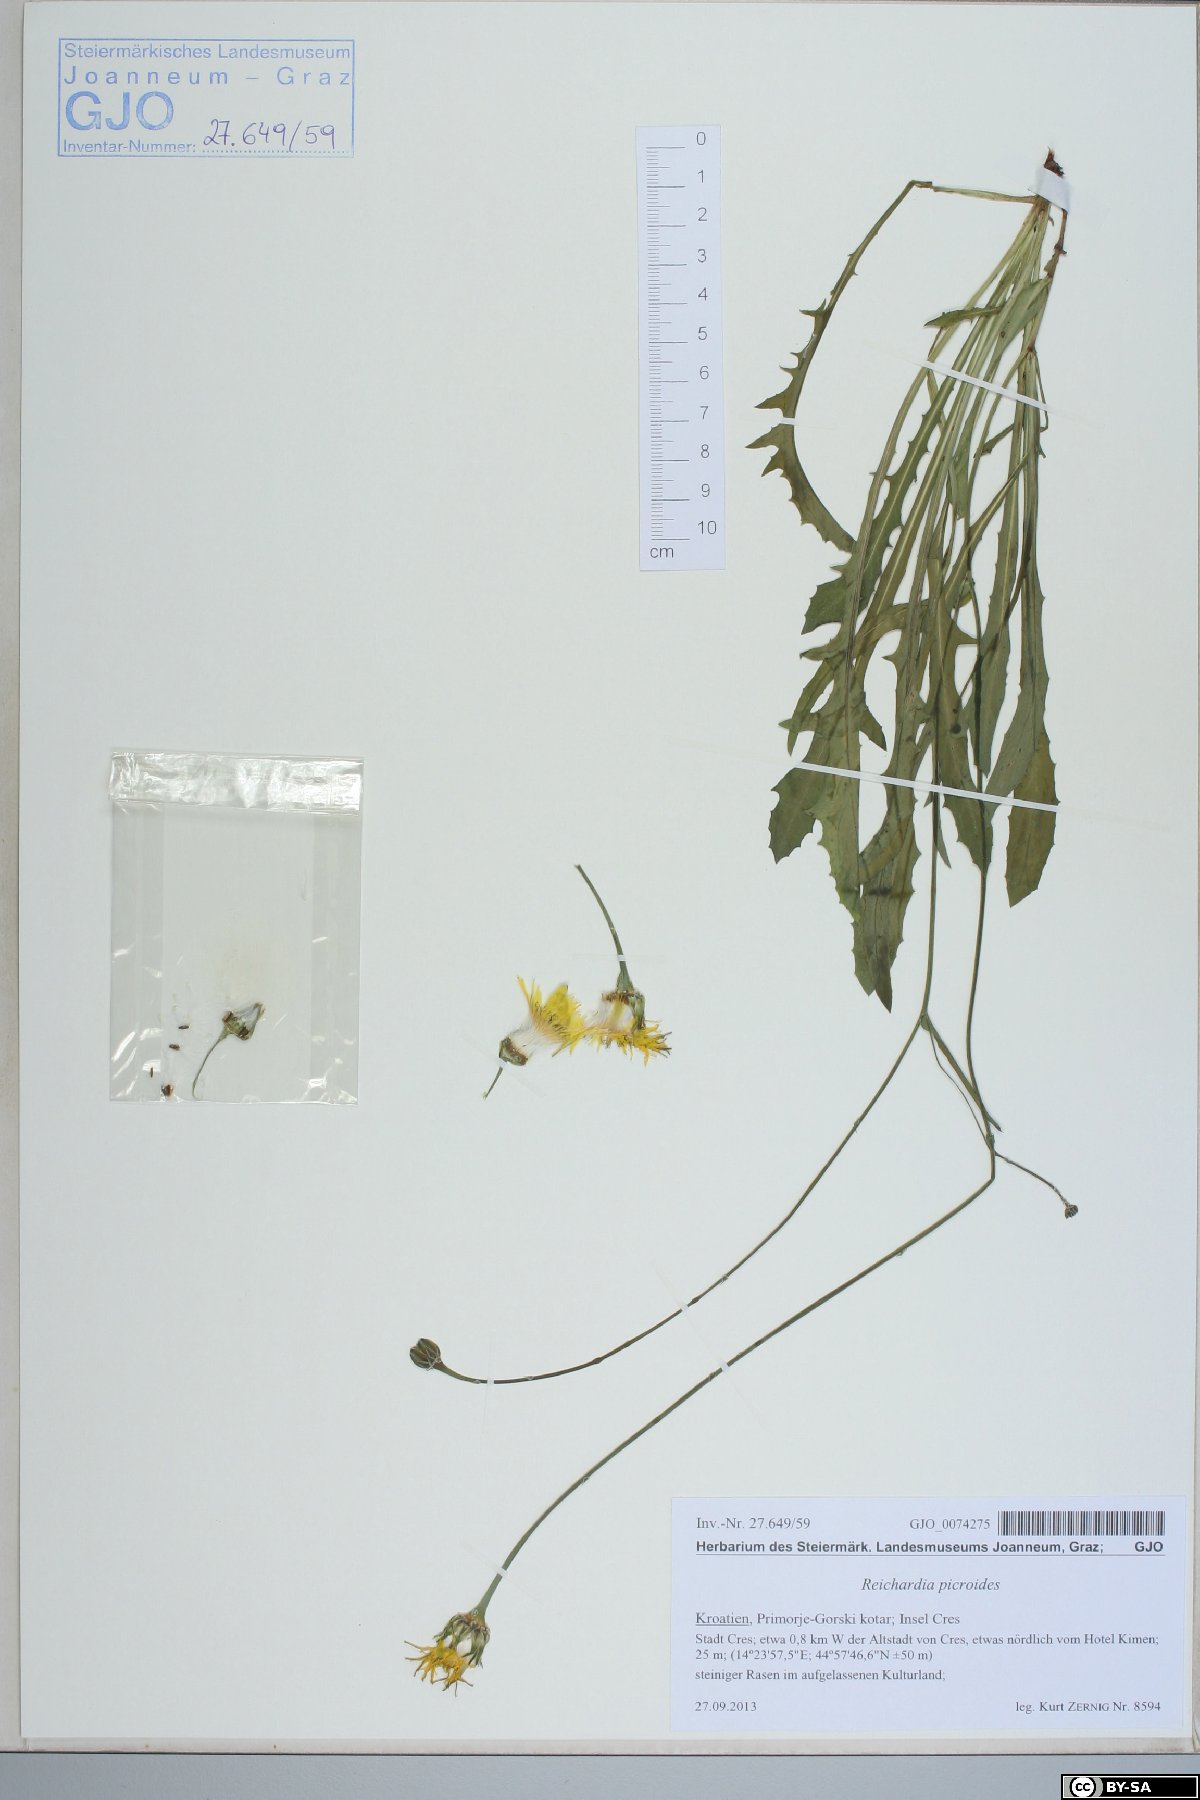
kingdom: Plantae
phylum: Tracheophyta
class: Magnoliopsida
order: Asterales
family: Asteraceae
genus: Reichardia
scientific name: Reichardia picroides
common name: Common brighteyes
